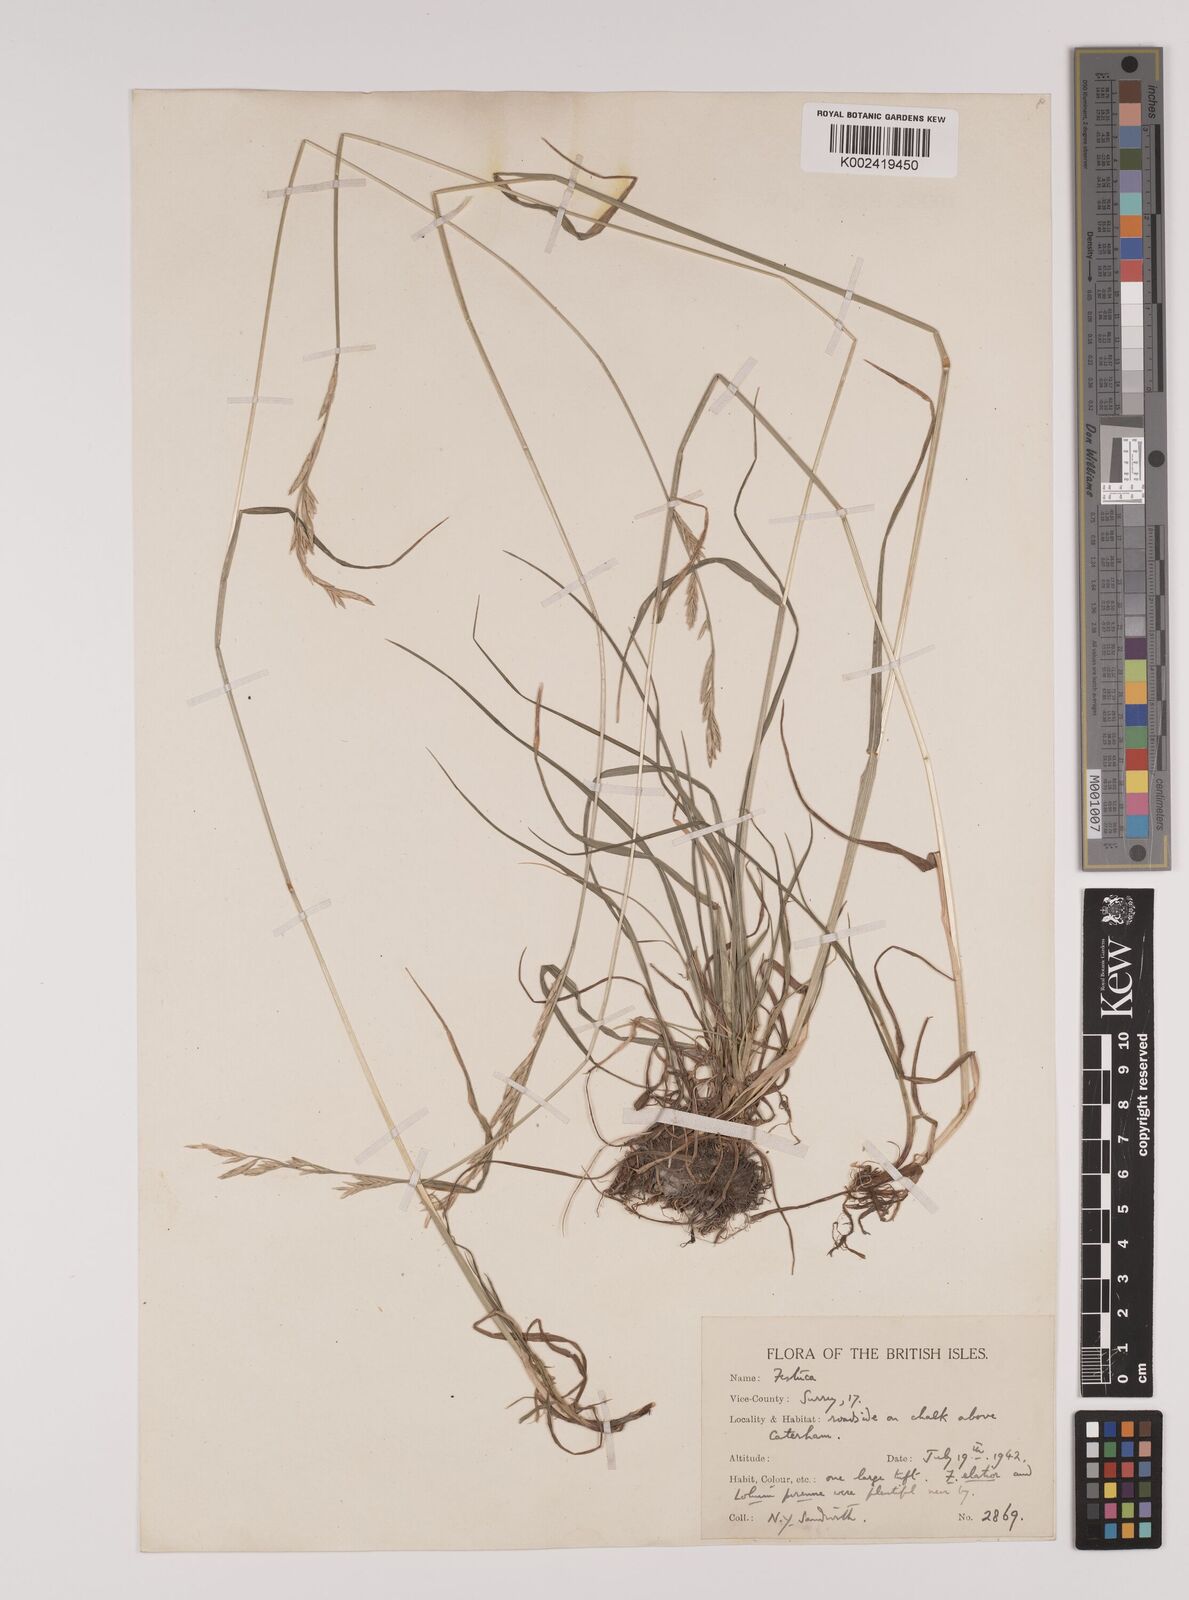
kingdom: Plantae
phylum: Tracheophyta
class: Liliopsida
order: Poales
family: Poaceae
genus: Lolium
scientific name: Lolium pratense
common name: Dover grass
